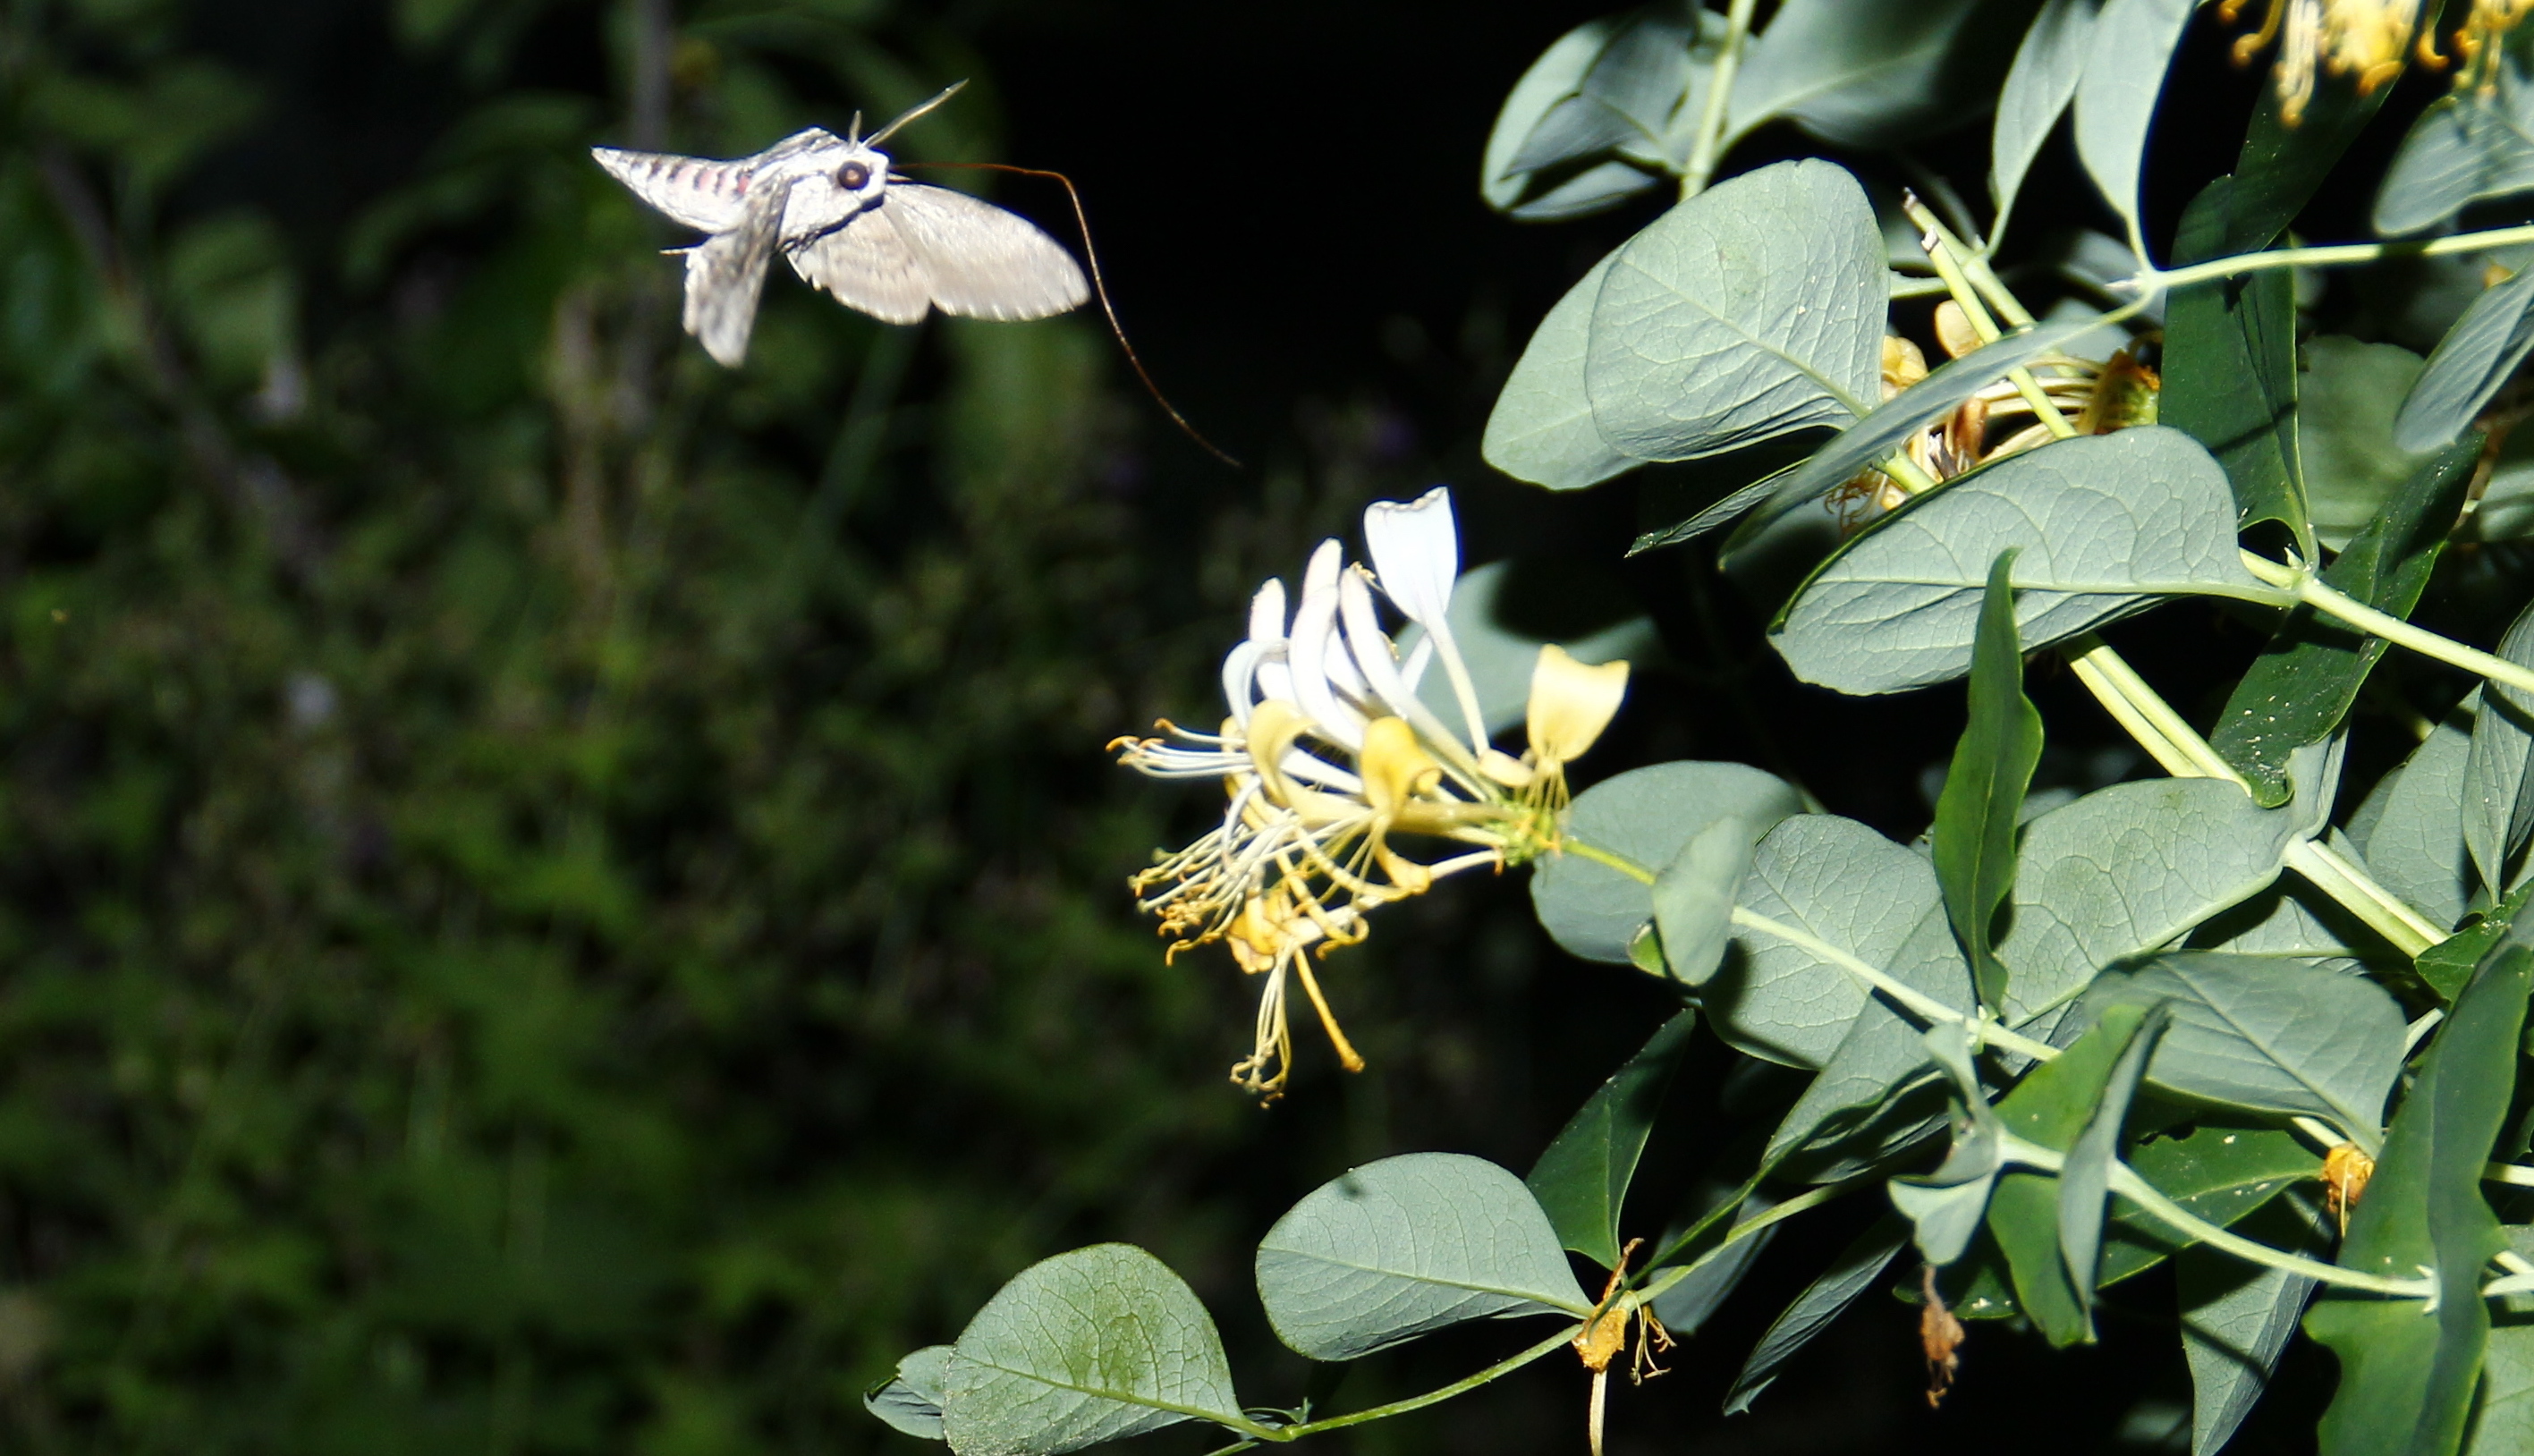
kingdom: Animalia
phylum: Arthropoda
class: Insecta
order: Lepidoptera
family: Sphingidae
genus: Agrius
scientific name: Agrius convolvuli
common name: Convolvulus hawkmoth
